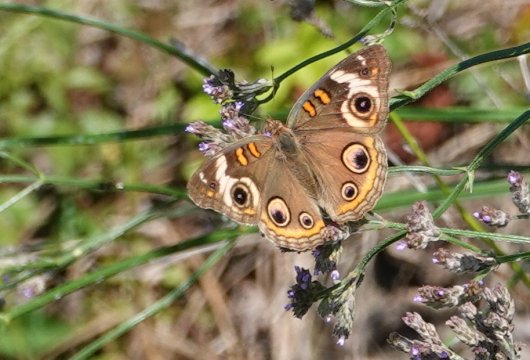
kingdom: Animalia
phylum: Arthropoda
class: Insecta
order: Lepidoptera
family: Nymphalidae
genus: Junonia
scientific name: Junonia coenia
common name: Common Buckeye
